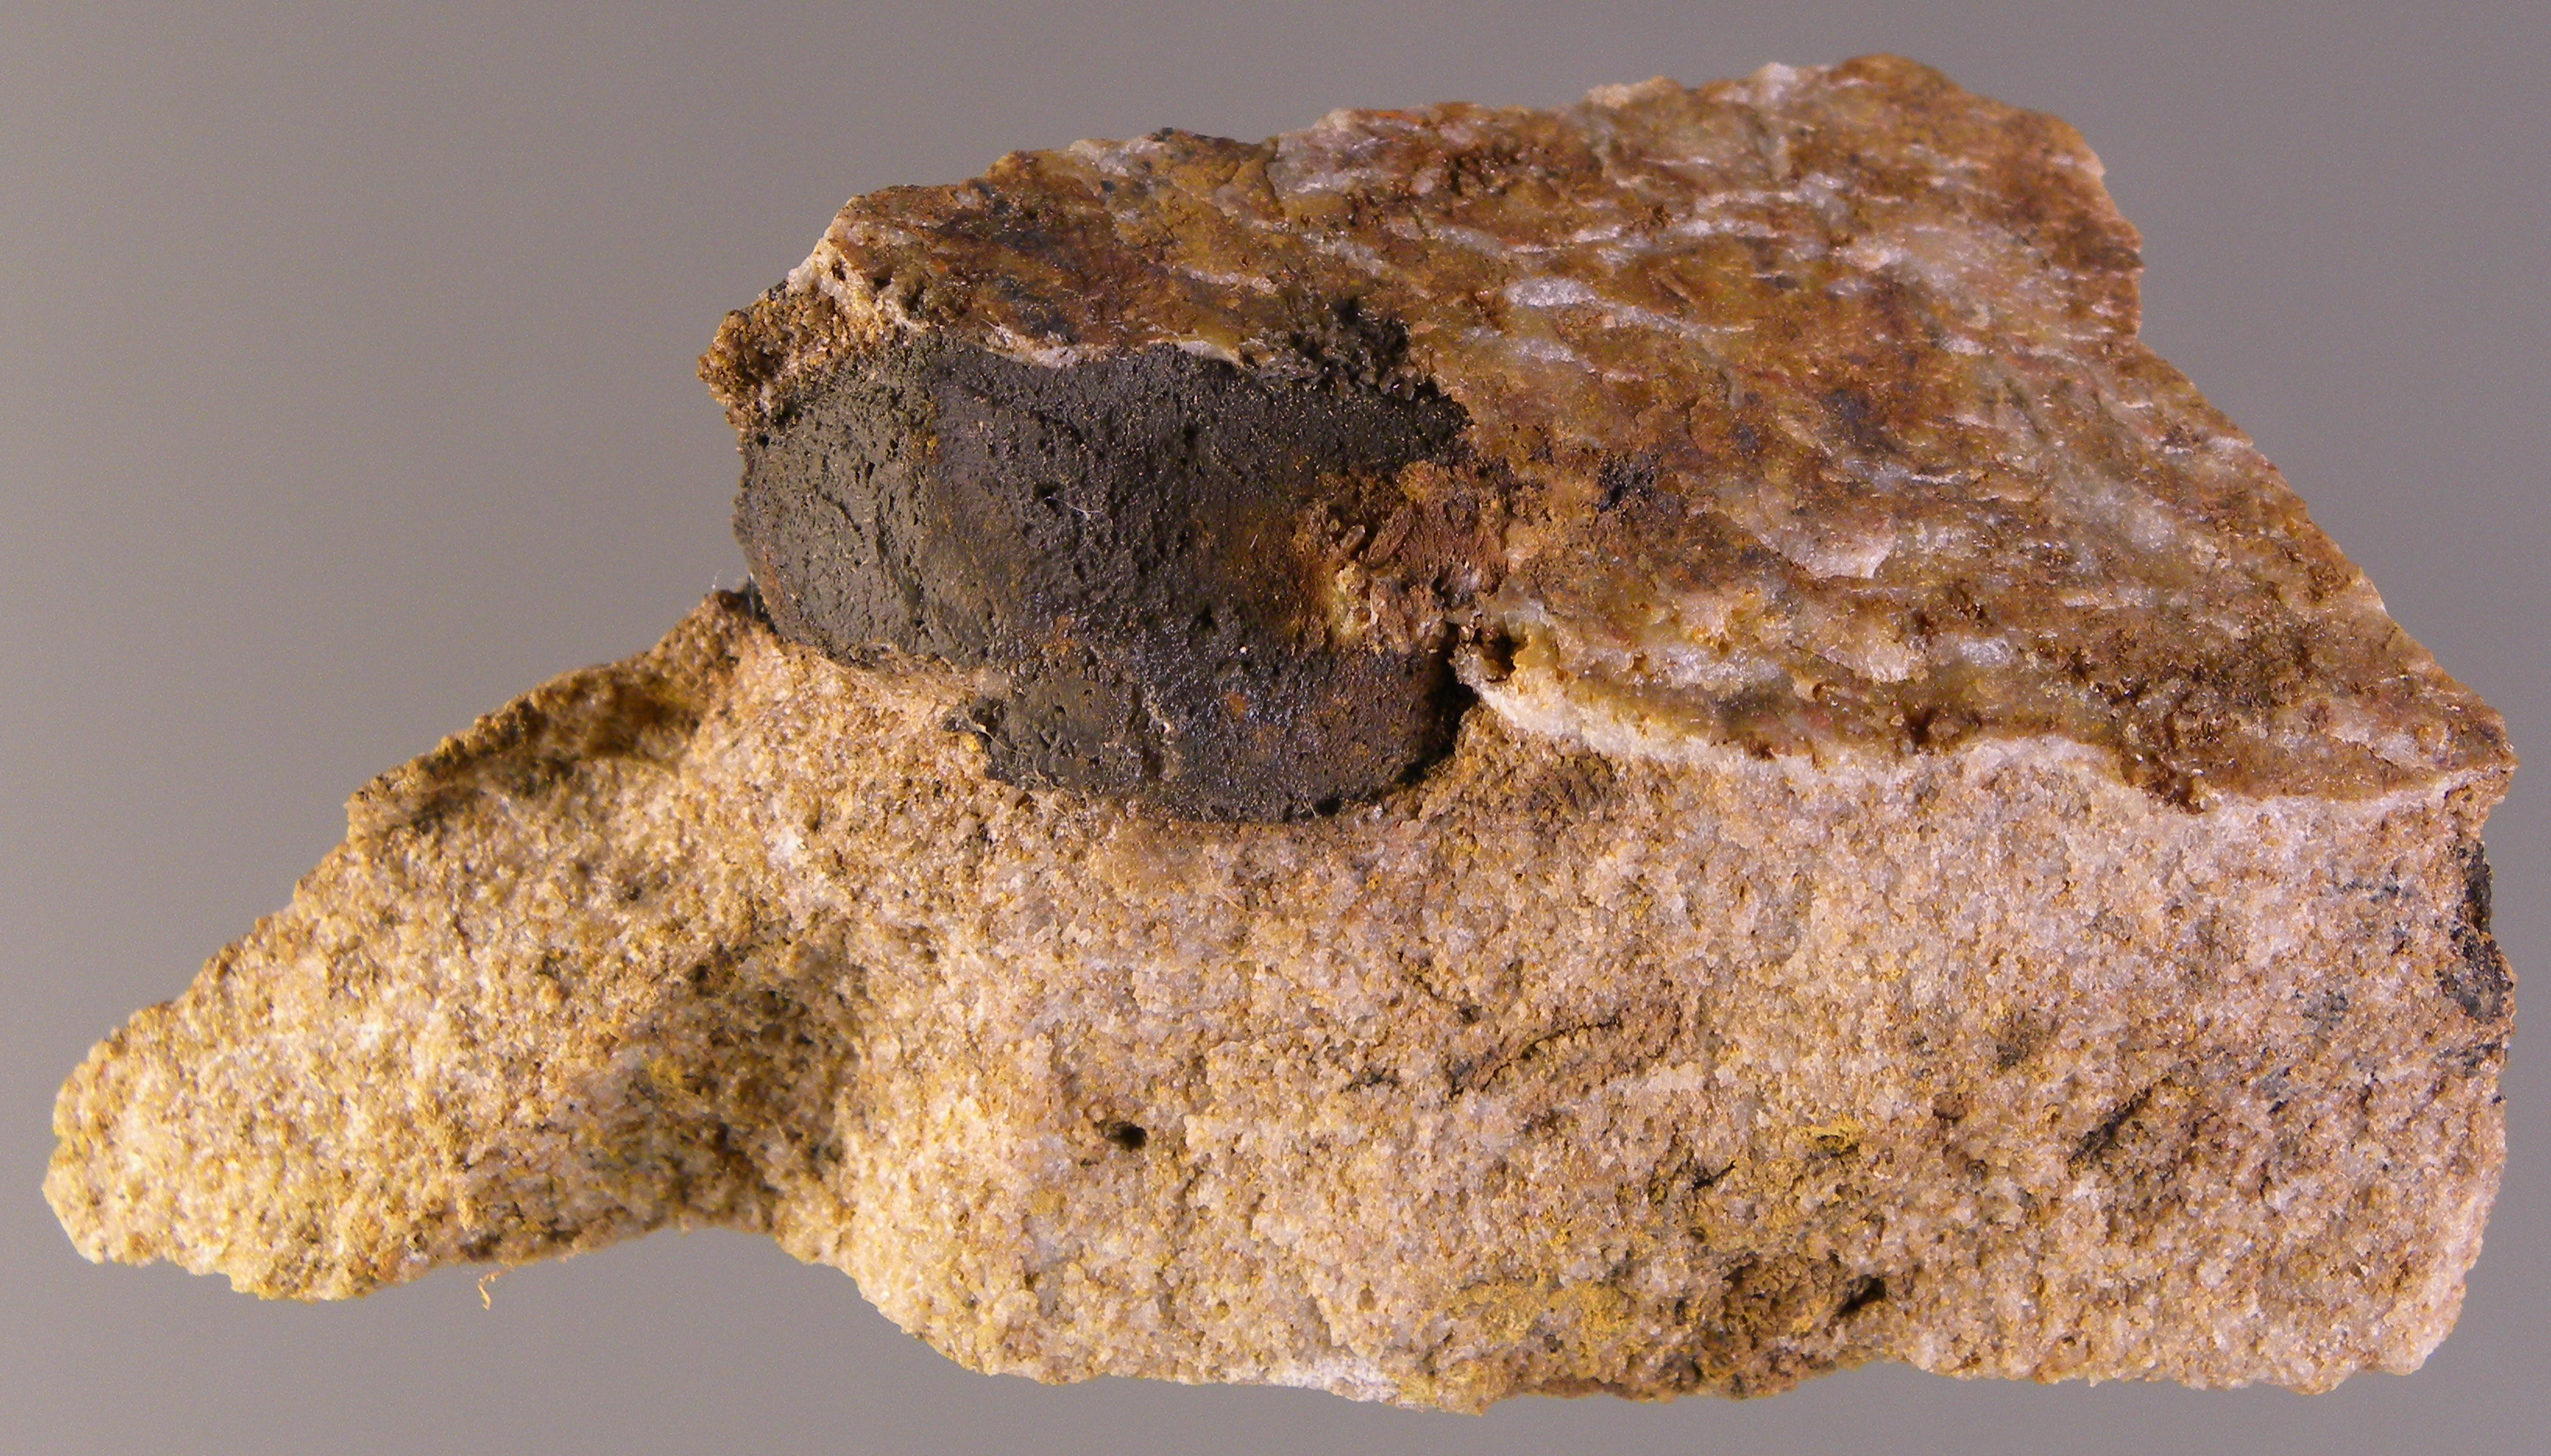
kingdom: Animalia
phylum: Mollusca
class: Bivalvia
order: Myalinida
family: Ambonychiidae
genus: Mytilarca
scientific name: Mytilarca
